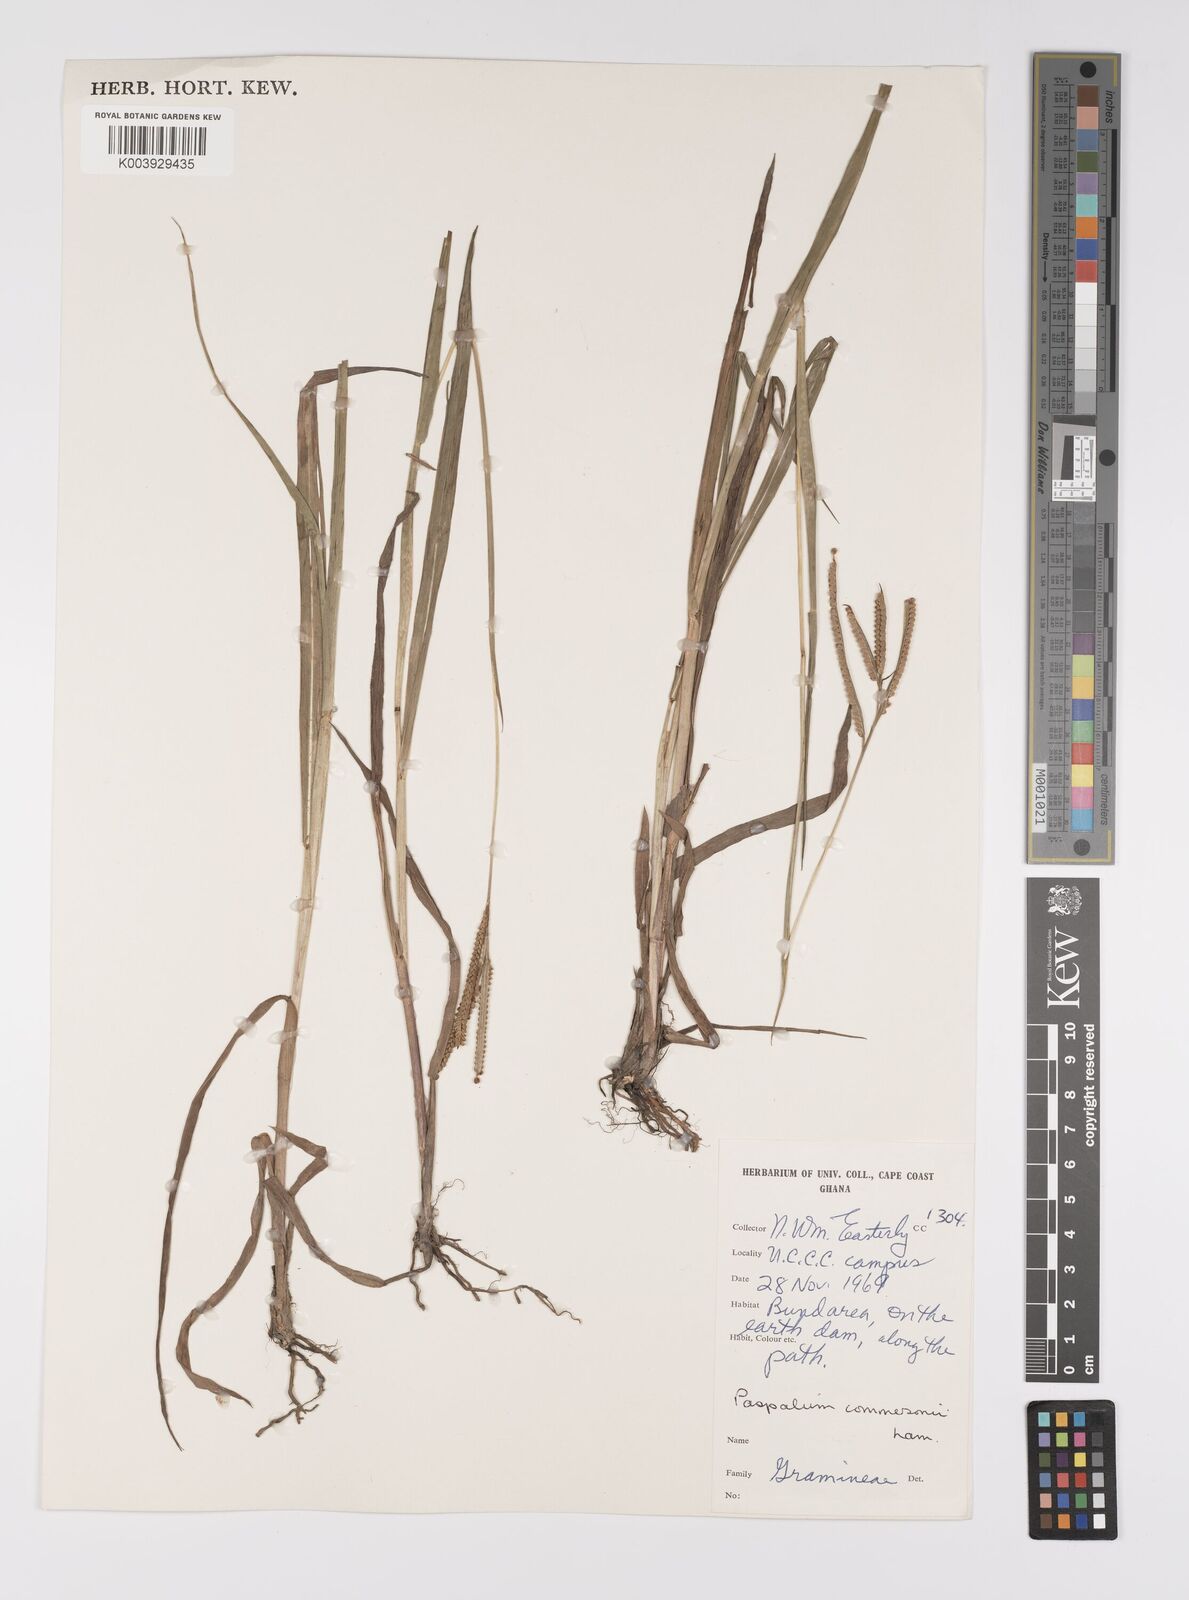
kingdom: Plantae
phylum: Tracheophyta
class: Liliopsida
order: Poales
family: Poaceae
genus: Paspalum
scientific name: Paspalum scrobiculatum
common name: Kodo millet
